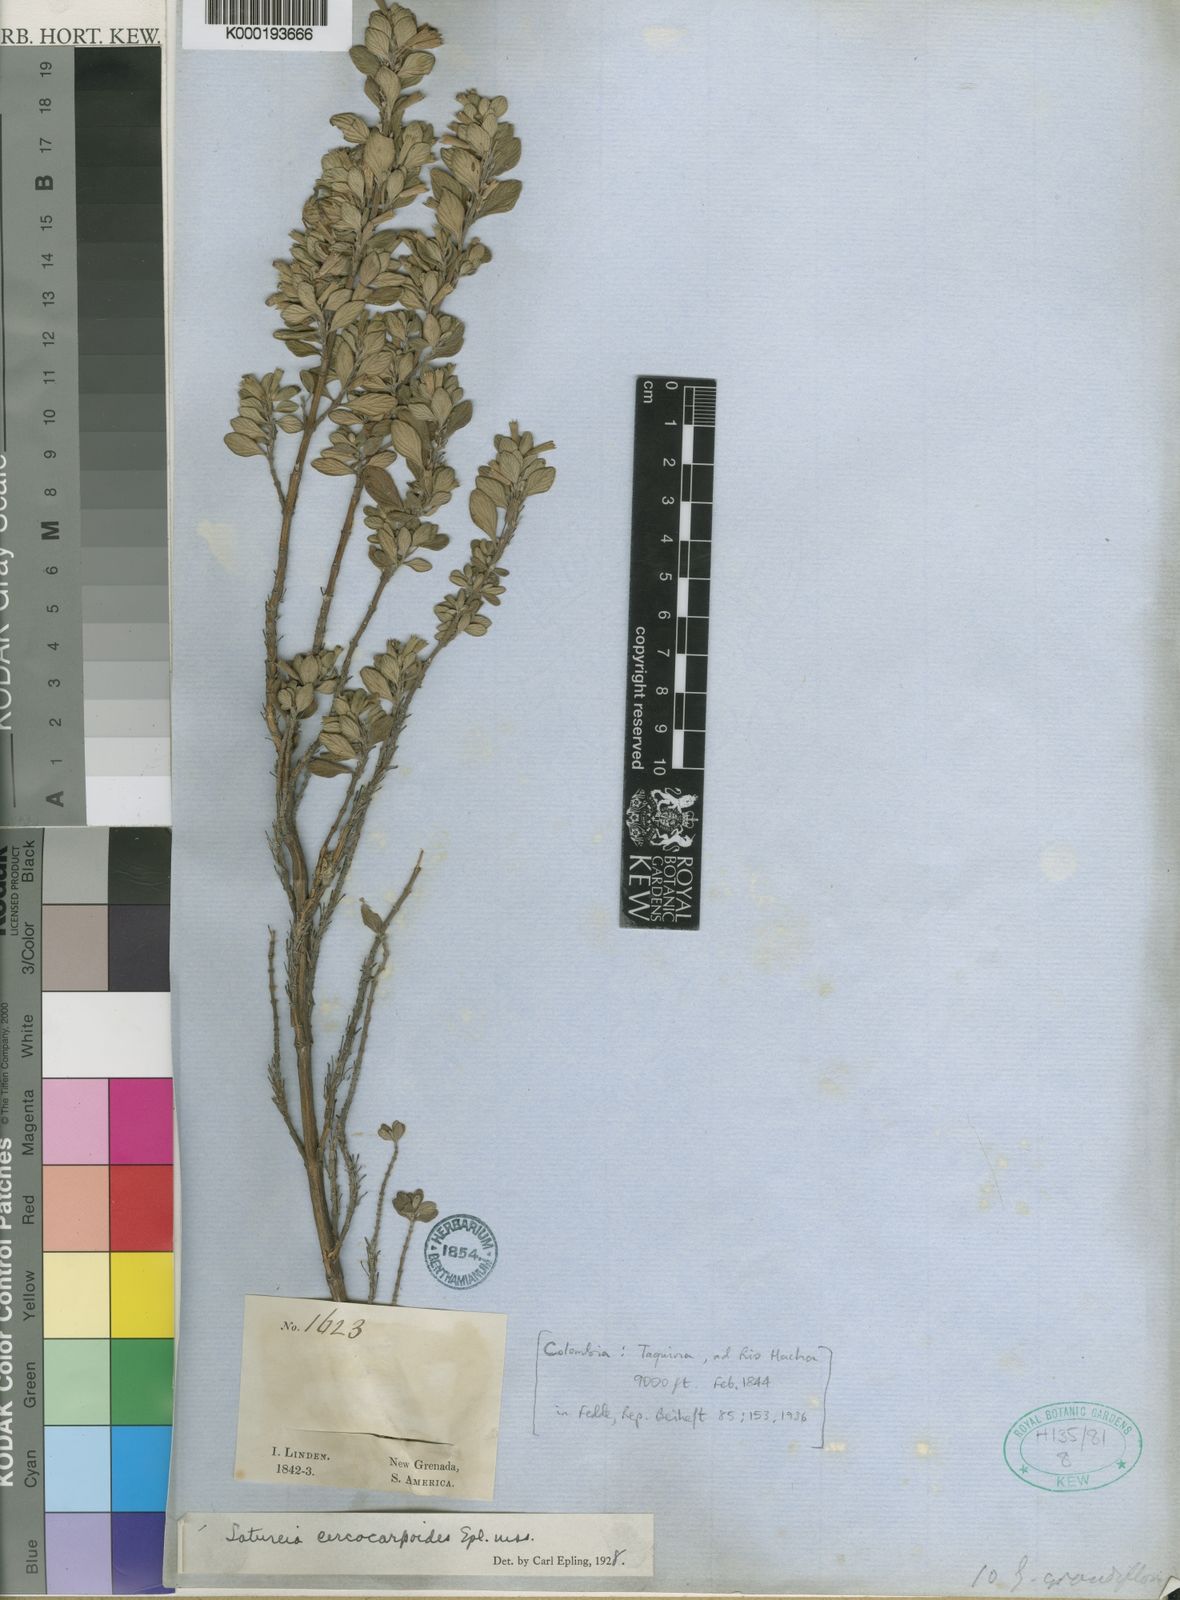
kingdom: Plantae
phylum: Tracheophyta
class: Magnoliopsida
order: Lamiales
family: Lamiaceae
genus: Clinopodium
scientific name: Clinopodium cercocarpoides
